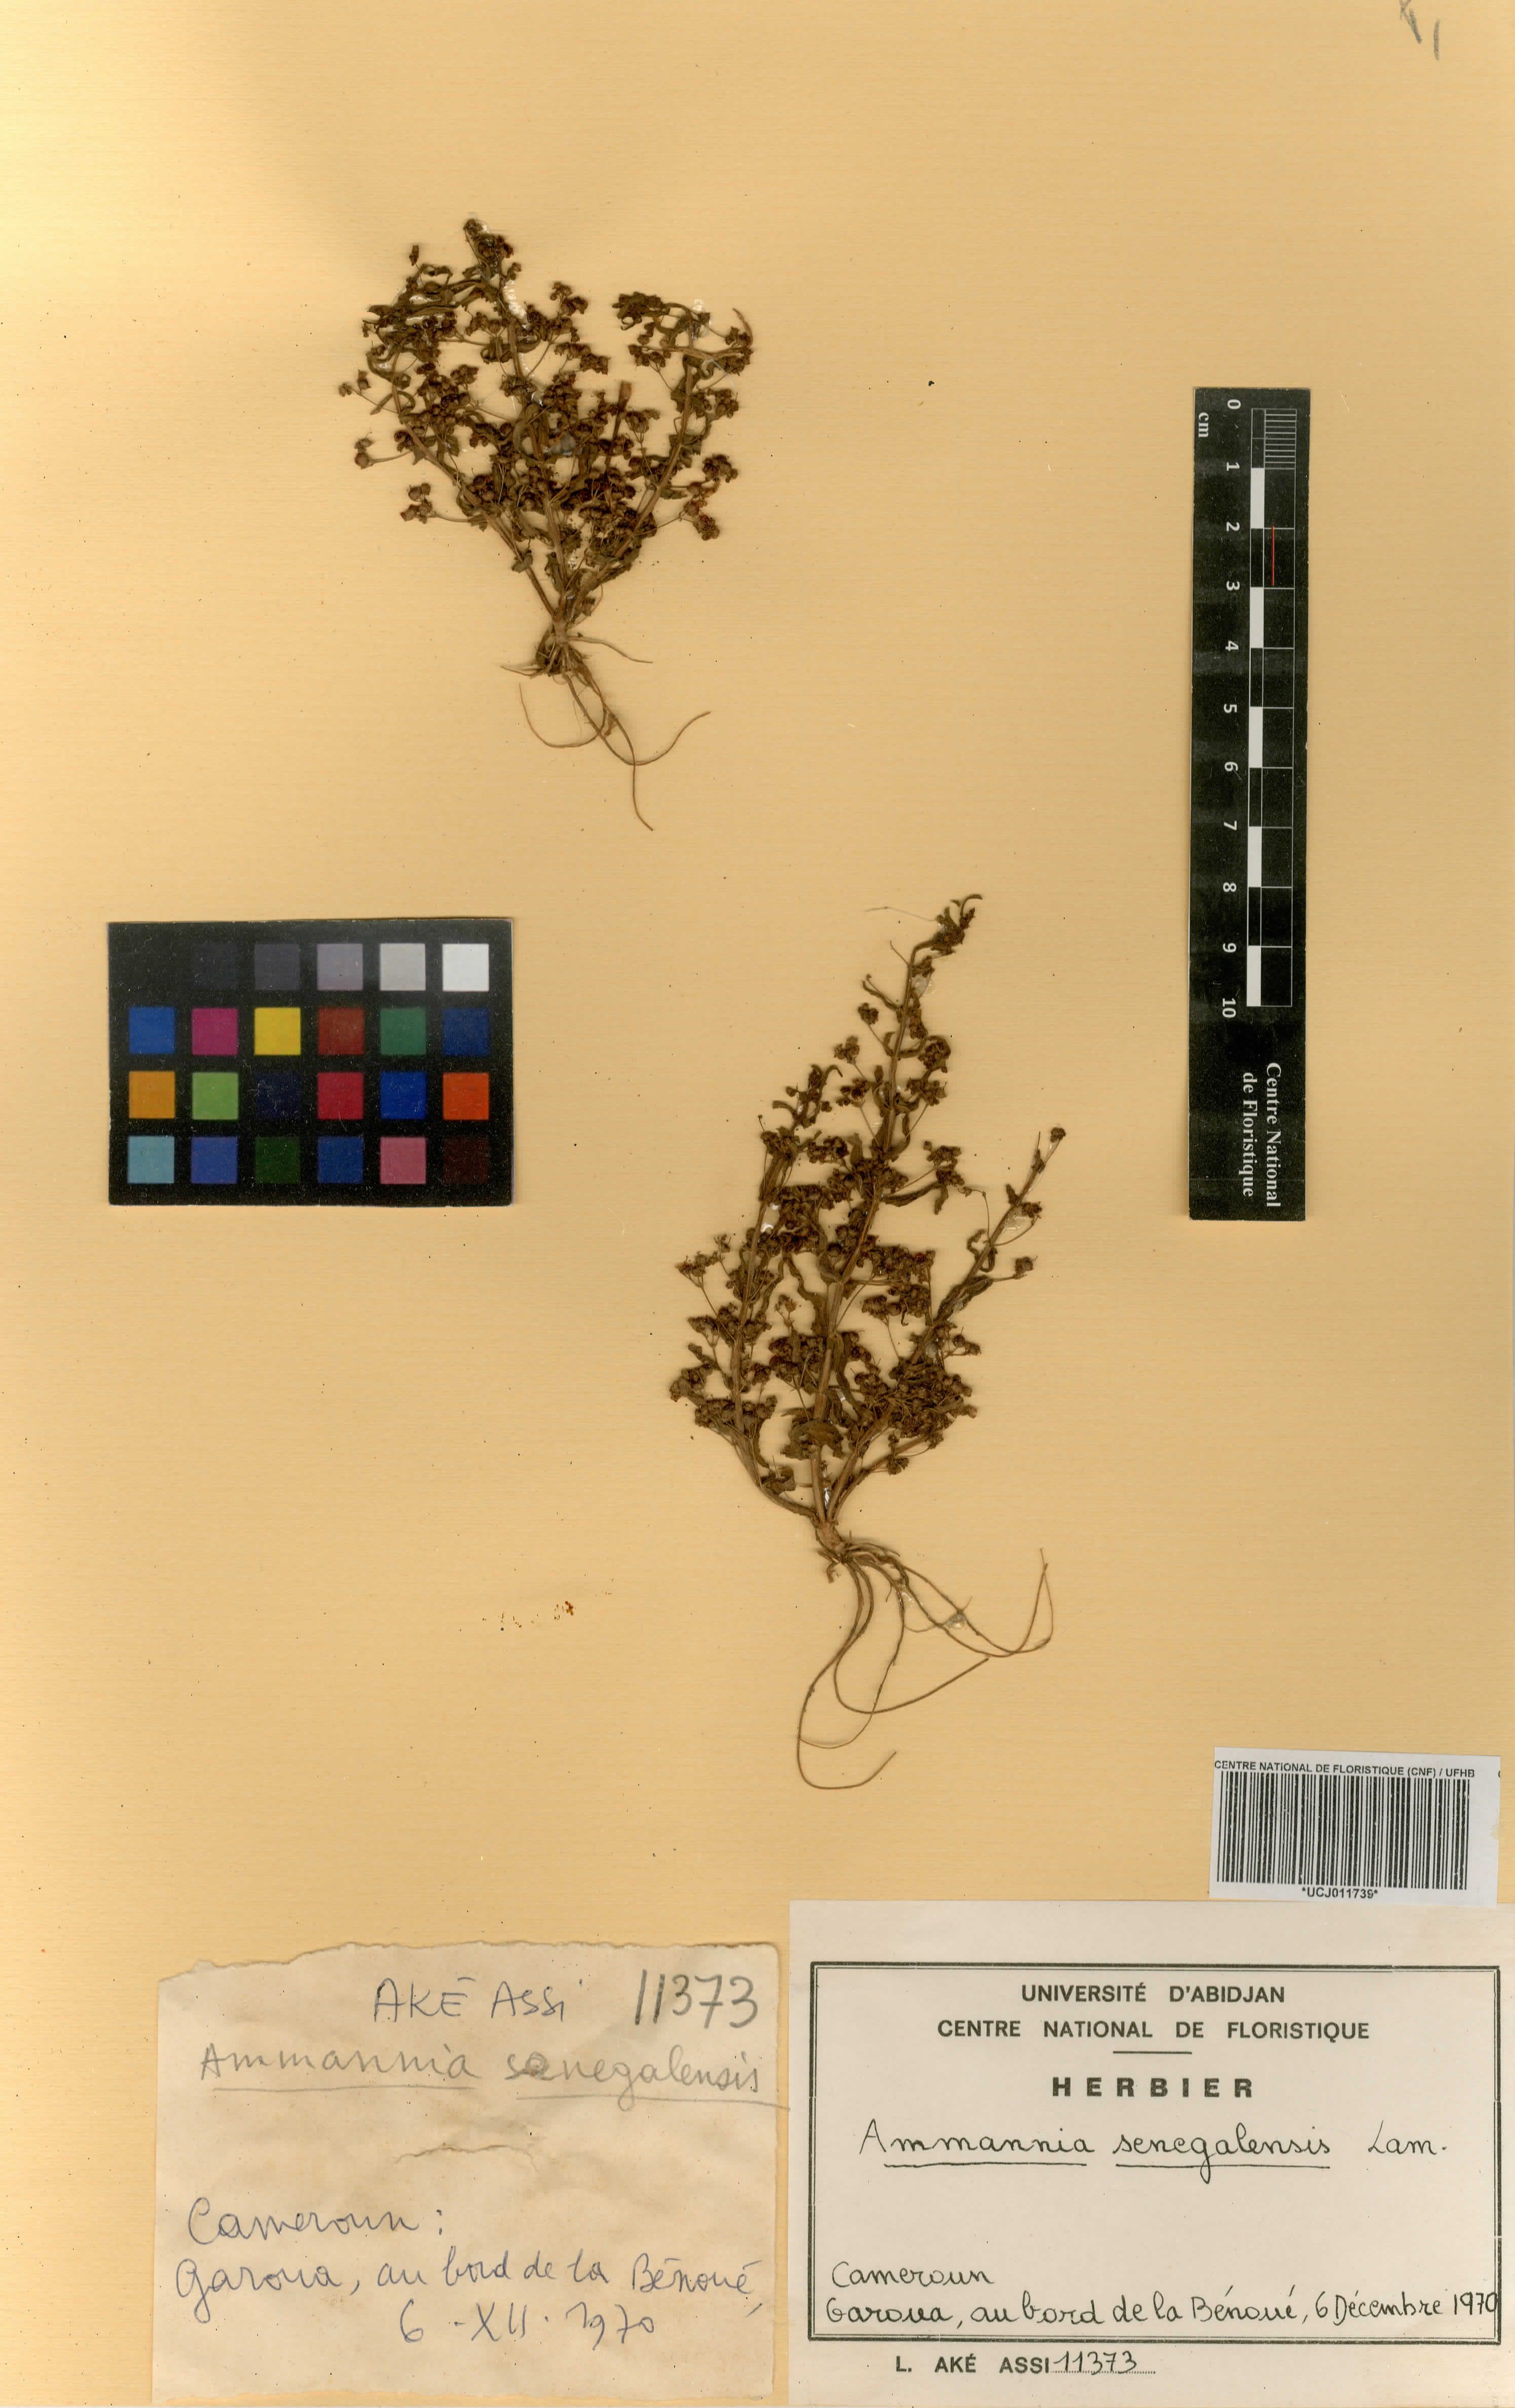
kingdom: Plantae
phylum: Tracheophyta
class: Magnoliopsida
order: Myrtales
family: Lythraceae
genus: Ammannia
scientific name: Ammannia senegalensis
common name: Red ammannia
